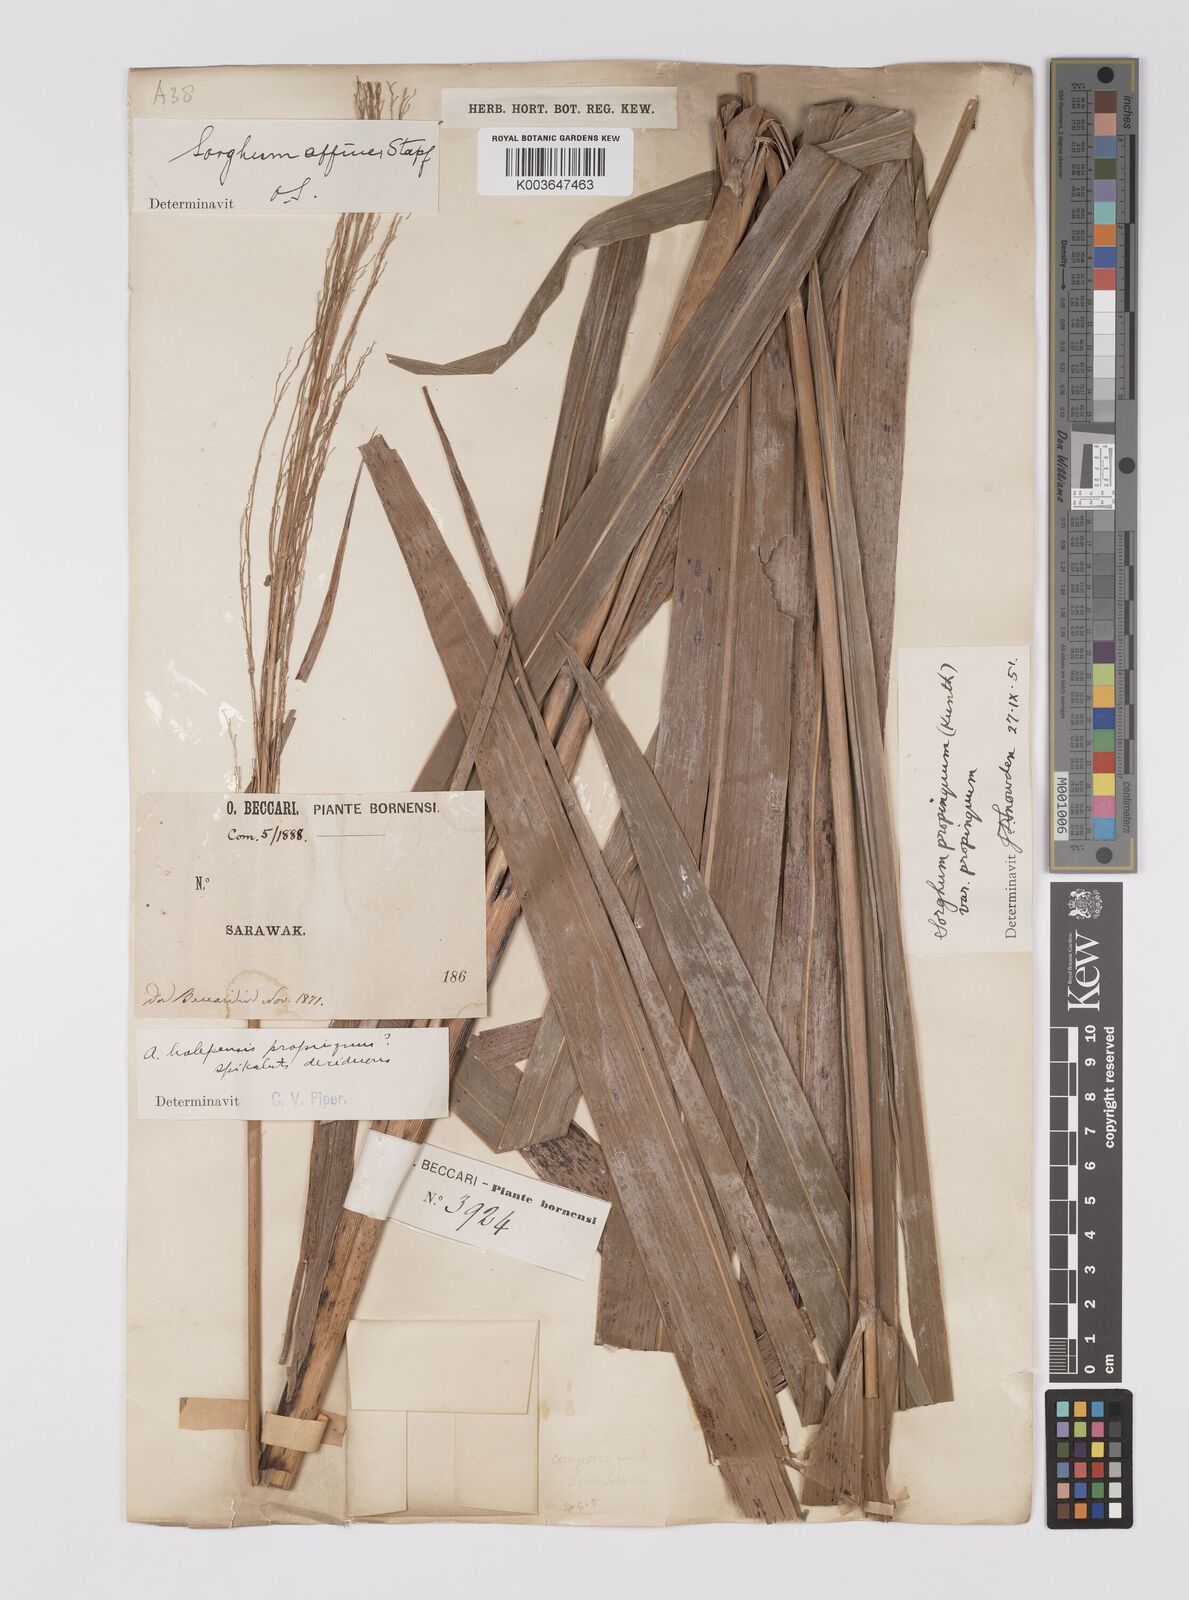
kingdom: Plantae
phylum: Tracheophyta
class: Liliopsida
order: Poales
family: Poaceae
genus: Sorghum
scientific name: Sorghum propinquum
